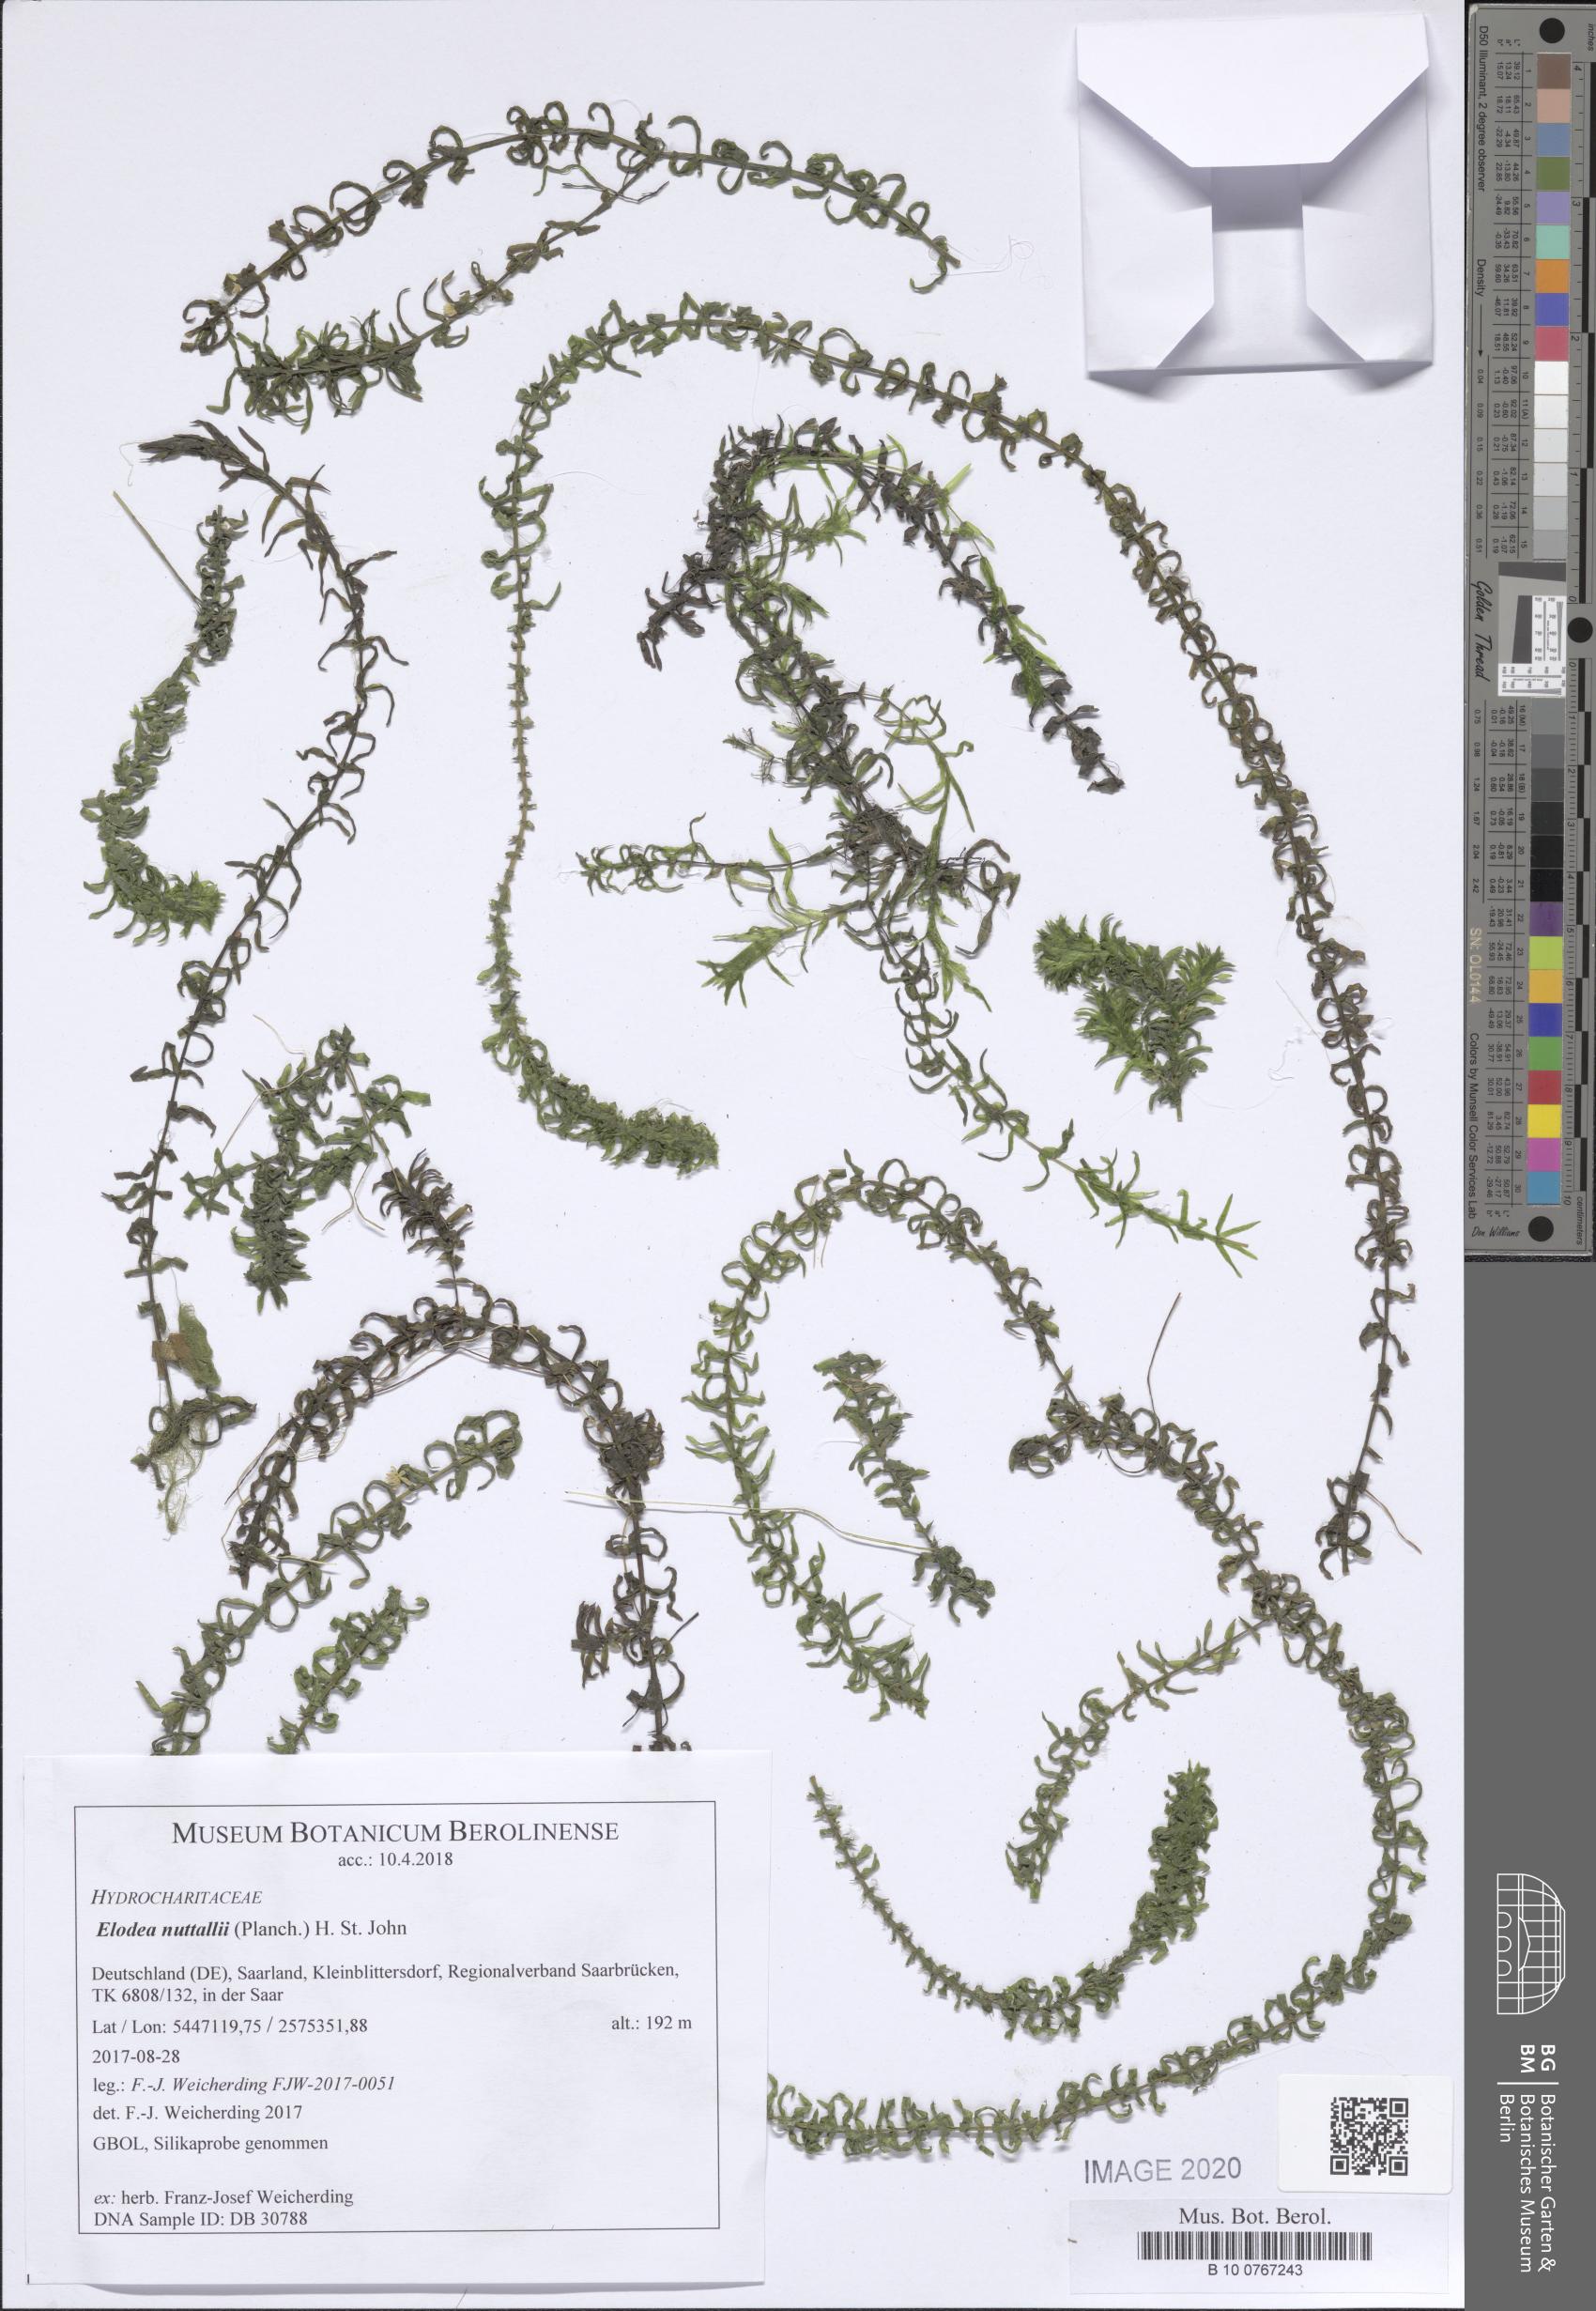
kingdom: Plantae
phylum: Tracheophyta
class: Liliopsida
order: Alismatales
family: Hydrocharitaceae
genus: Elodea
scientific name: Elodea nuttallii
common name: Nuttall's waterweed
